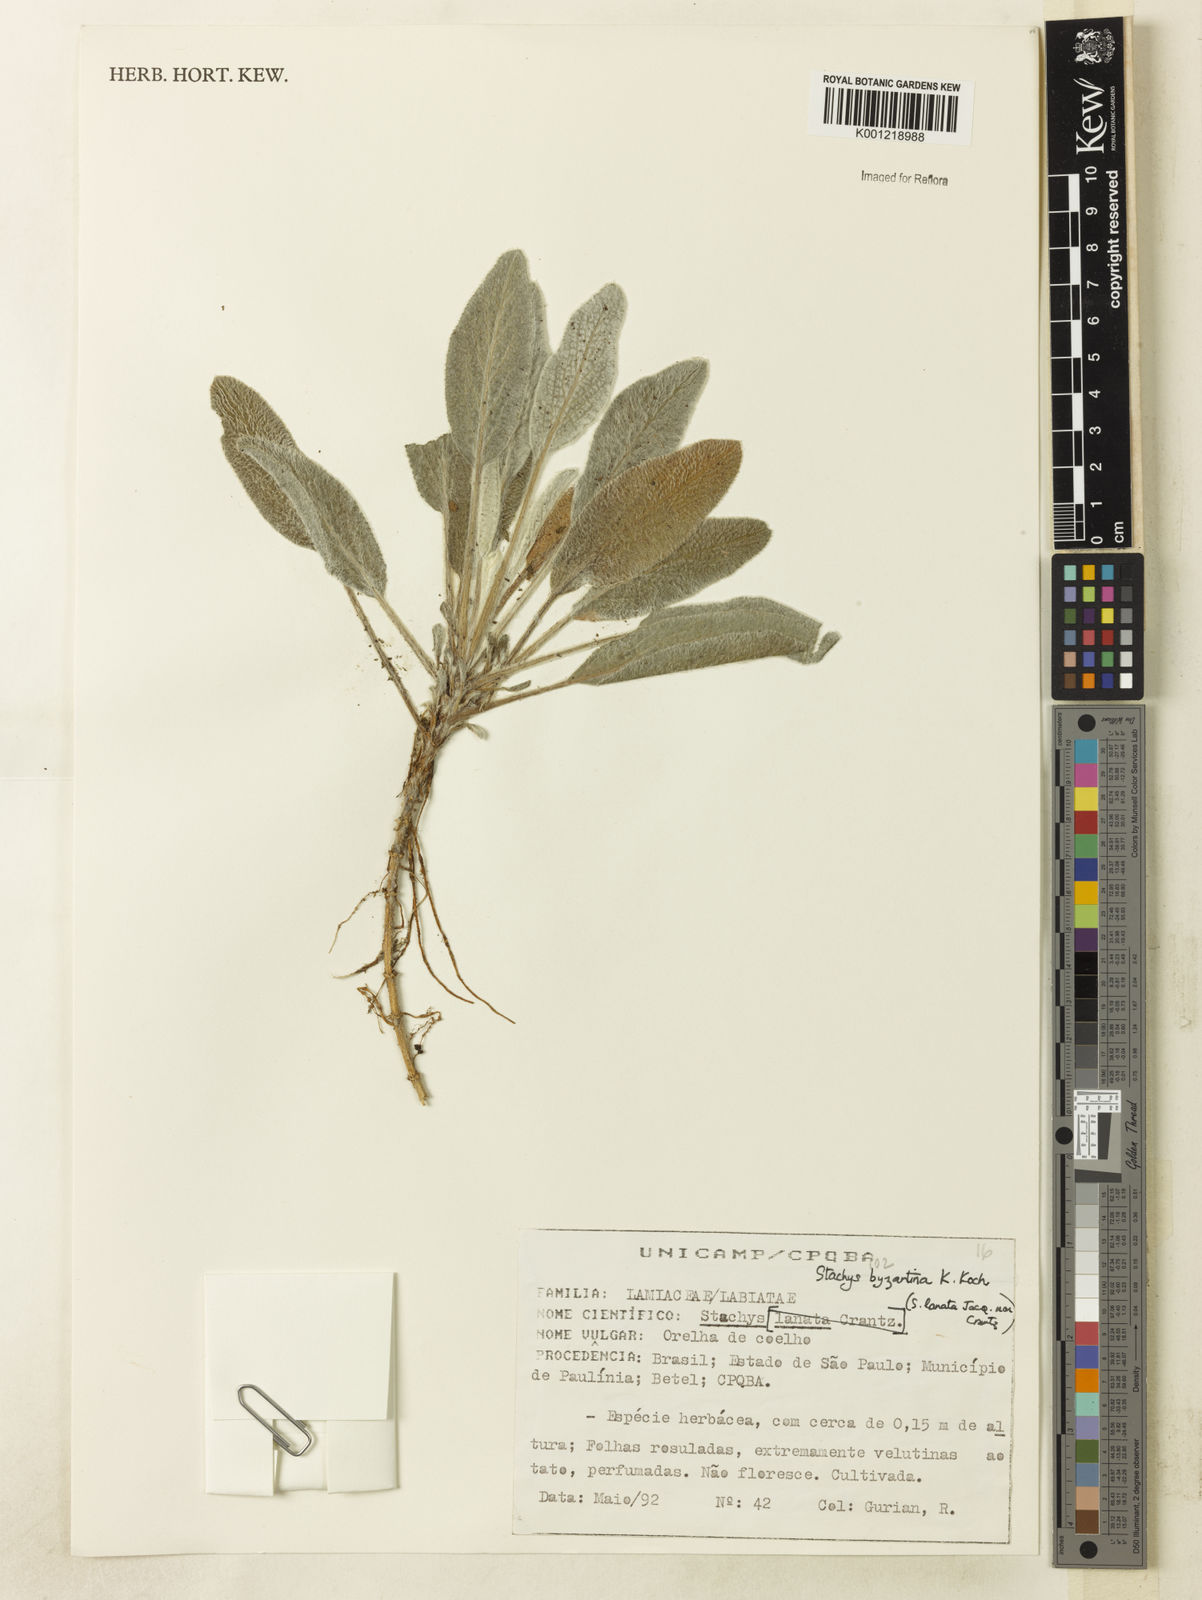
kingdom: Plantae
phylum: Tracheophyta
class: Magnoliopsida
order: Lamiales
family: Lamiaceae
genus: Stachys
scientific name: Stachys byzantina
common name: Lamb's-ear
